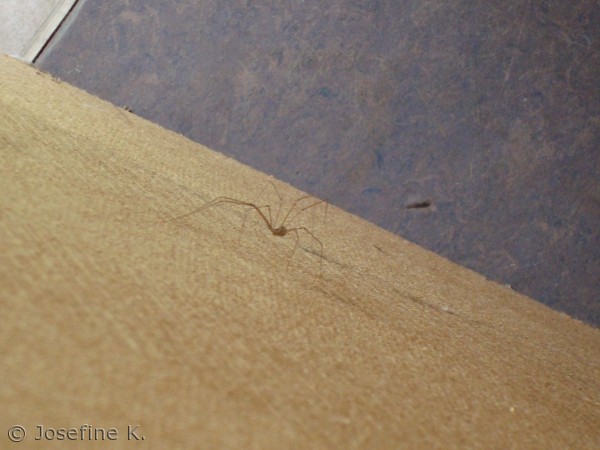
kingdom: Animalia
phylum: Arthropoda
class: Arachnida
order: Araneae
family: Pholcidae
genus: Pholcus
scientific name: Pholcus phalangioides
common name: Mejeredderkop
